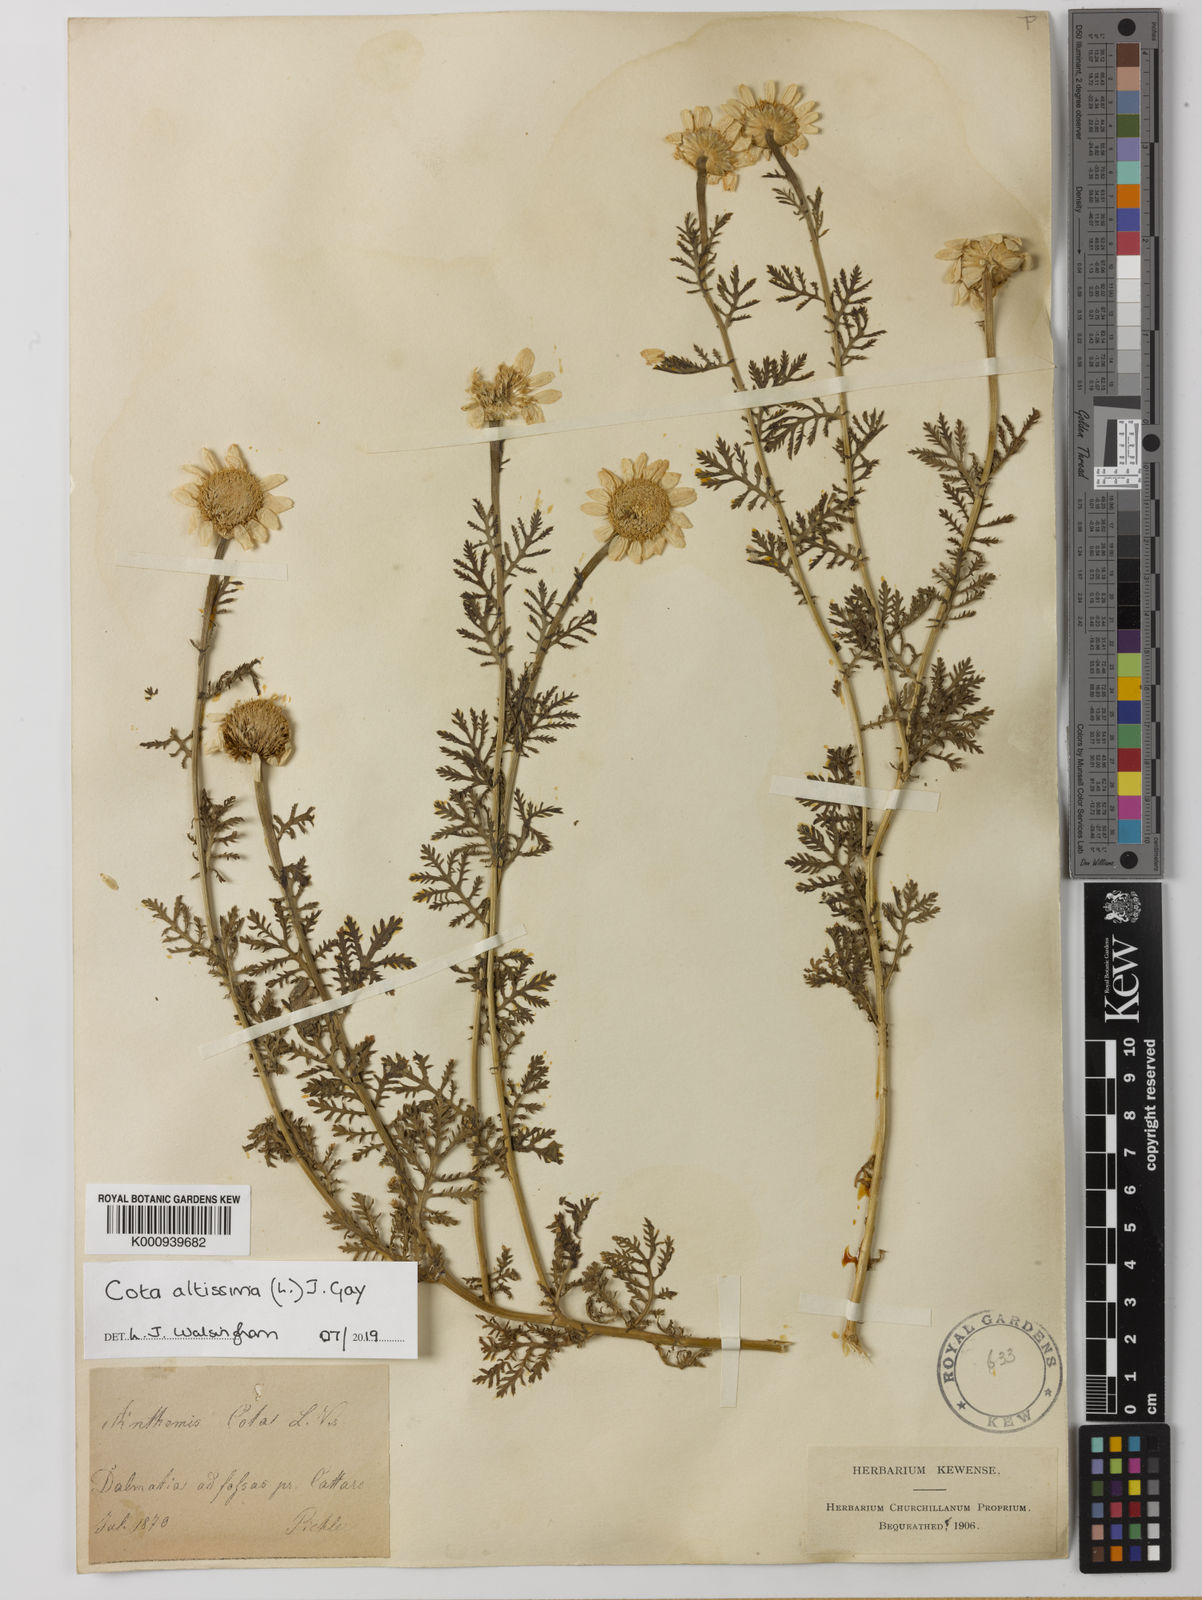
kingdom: Plantae
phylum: Tracheophyta
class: Magnoliopsida
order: Asterales
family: Asteraceae
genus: Cota
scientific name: Cota altissima
